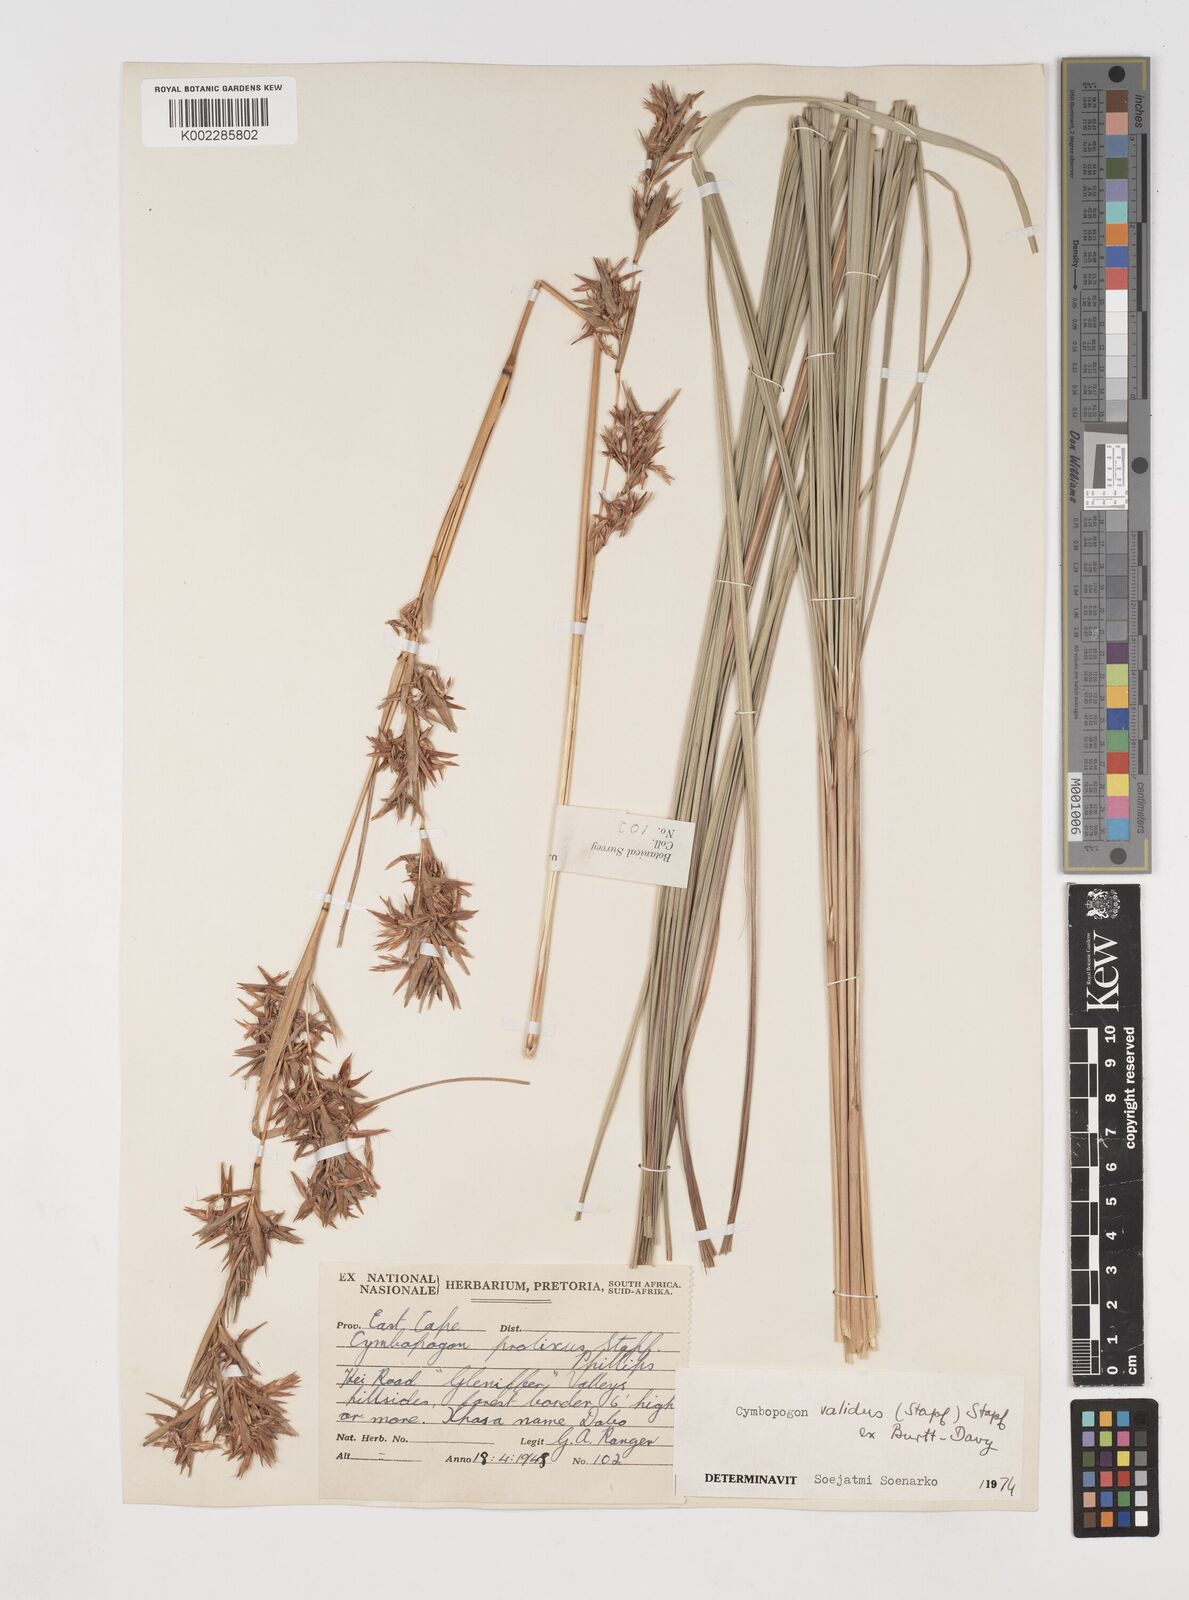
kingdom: Plantae
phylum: Tracheophyta
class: Liliopsida
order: Poales
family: Poaceae
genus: Cymbopogon
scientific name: Cymbopogon nardus
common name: Giant turpentine grass
